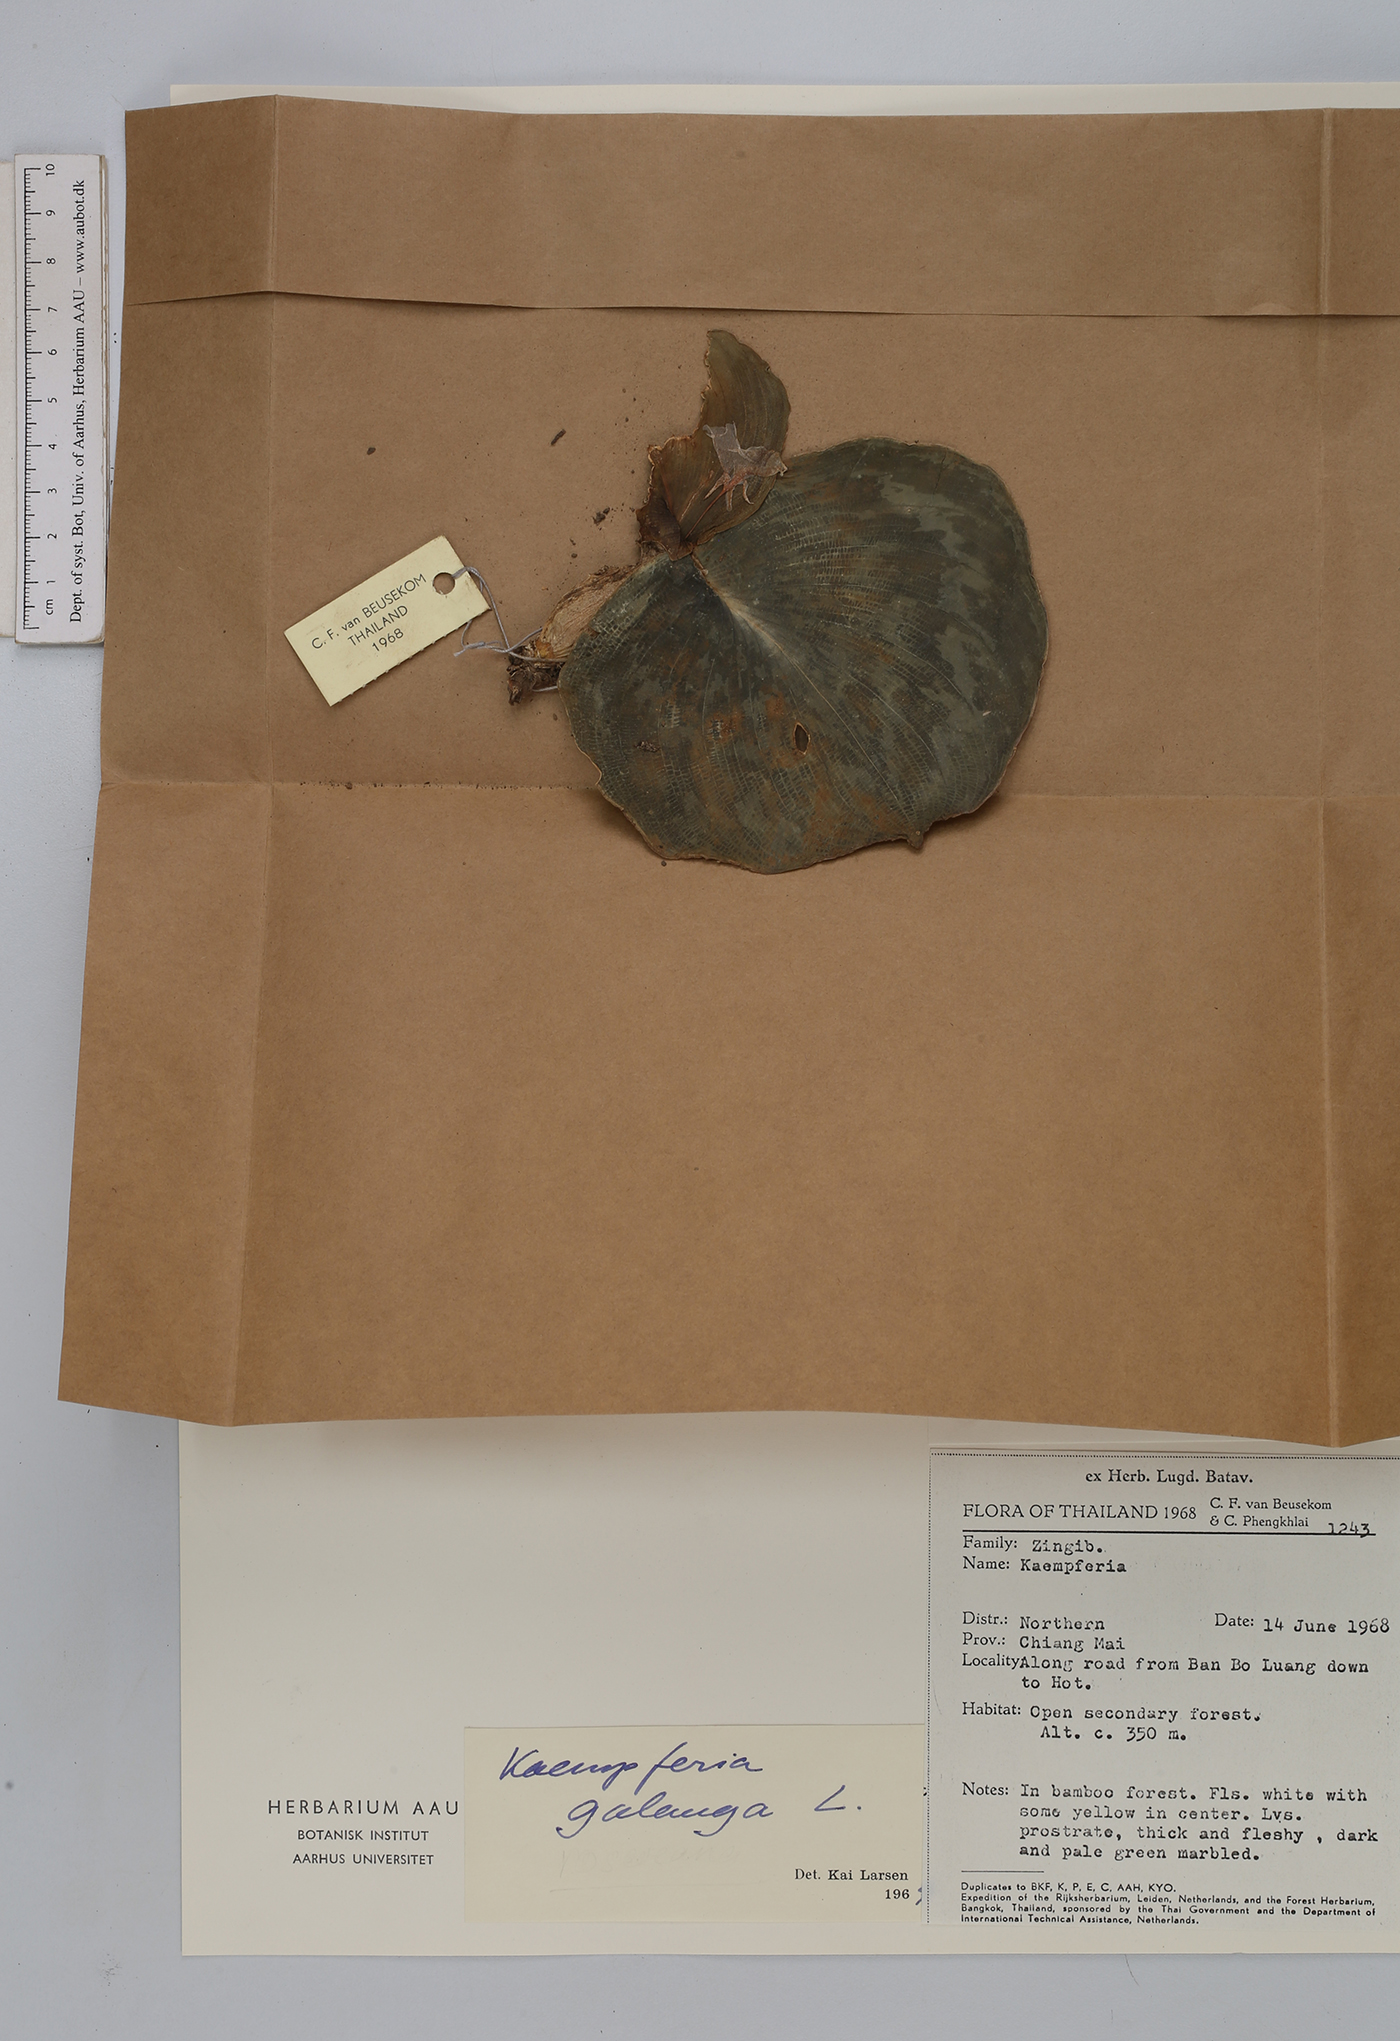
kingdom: Plantae
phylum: Tracheophyta
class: Liliopsida
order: Zingiberales
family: Zingiberaceae
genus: Kaempferia
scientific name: Kaempferia roscoeana
